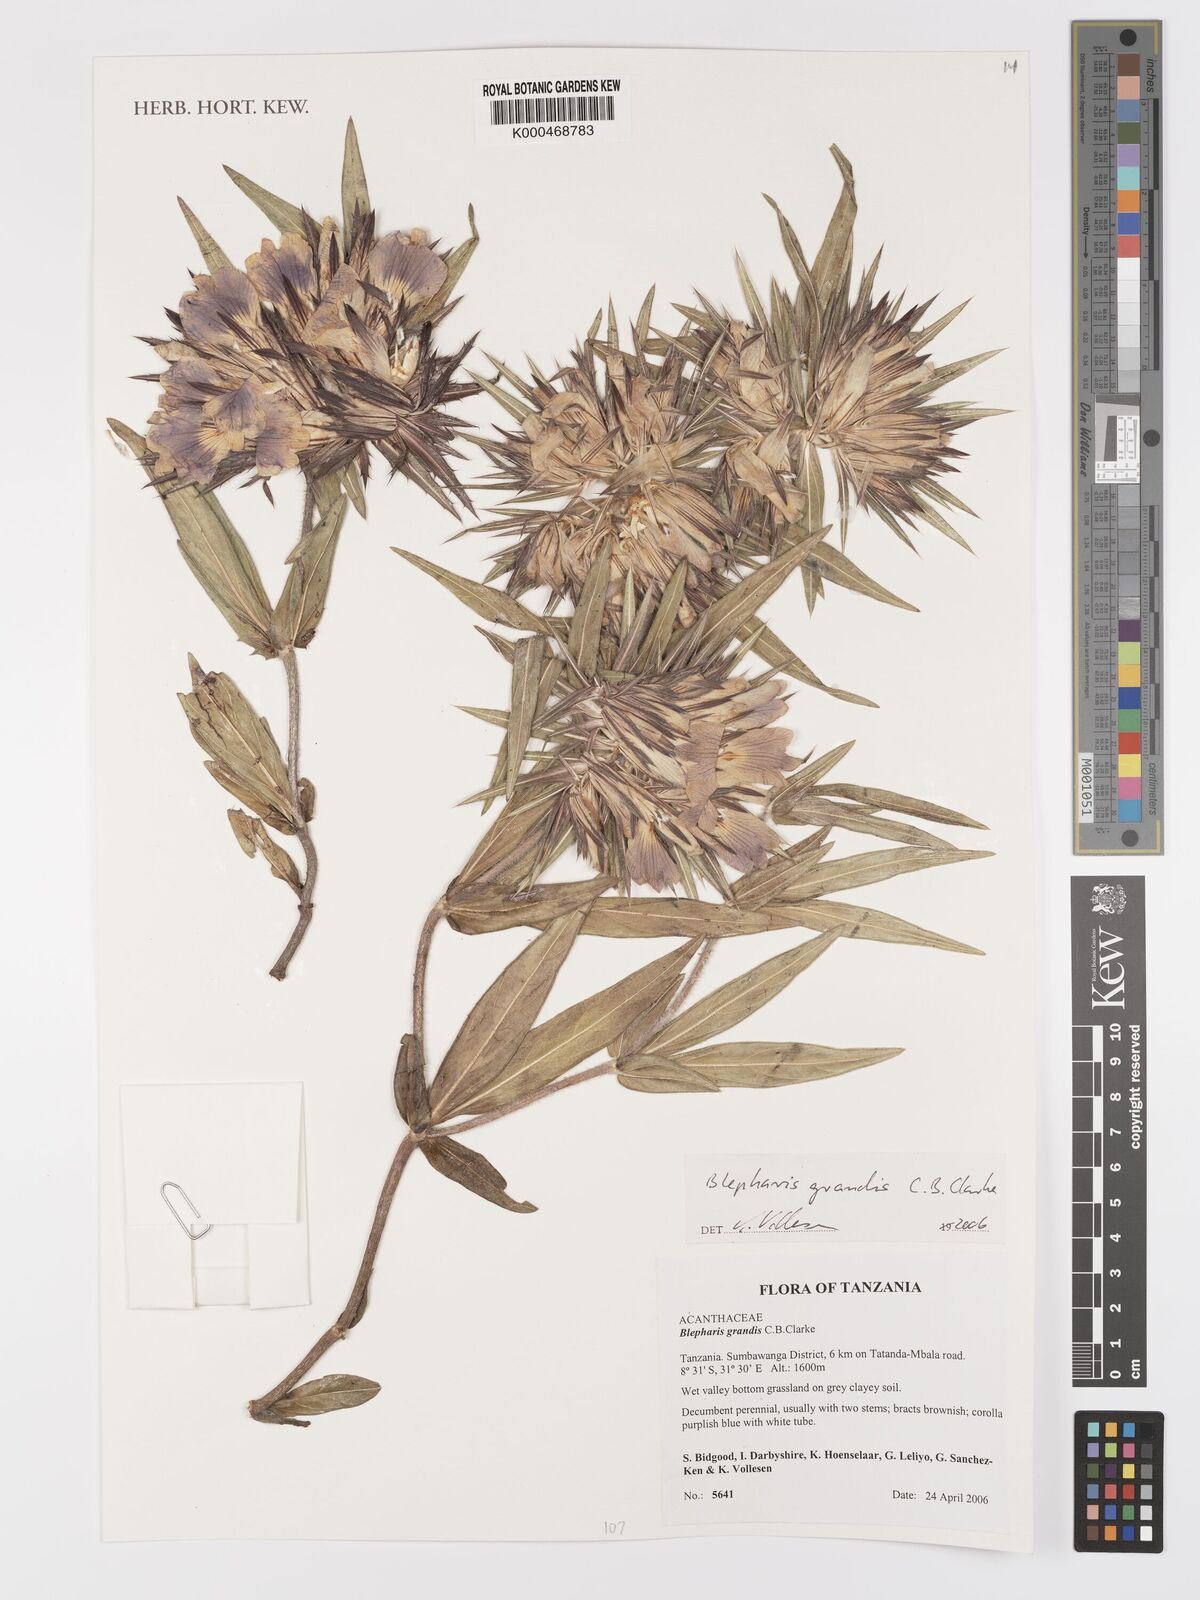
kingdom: Plantae
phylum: Tracheophyta
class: Magnoliopsida
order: Lamiales
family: Acanthaceae
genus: Blepharis
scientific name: Blepharis grandis
